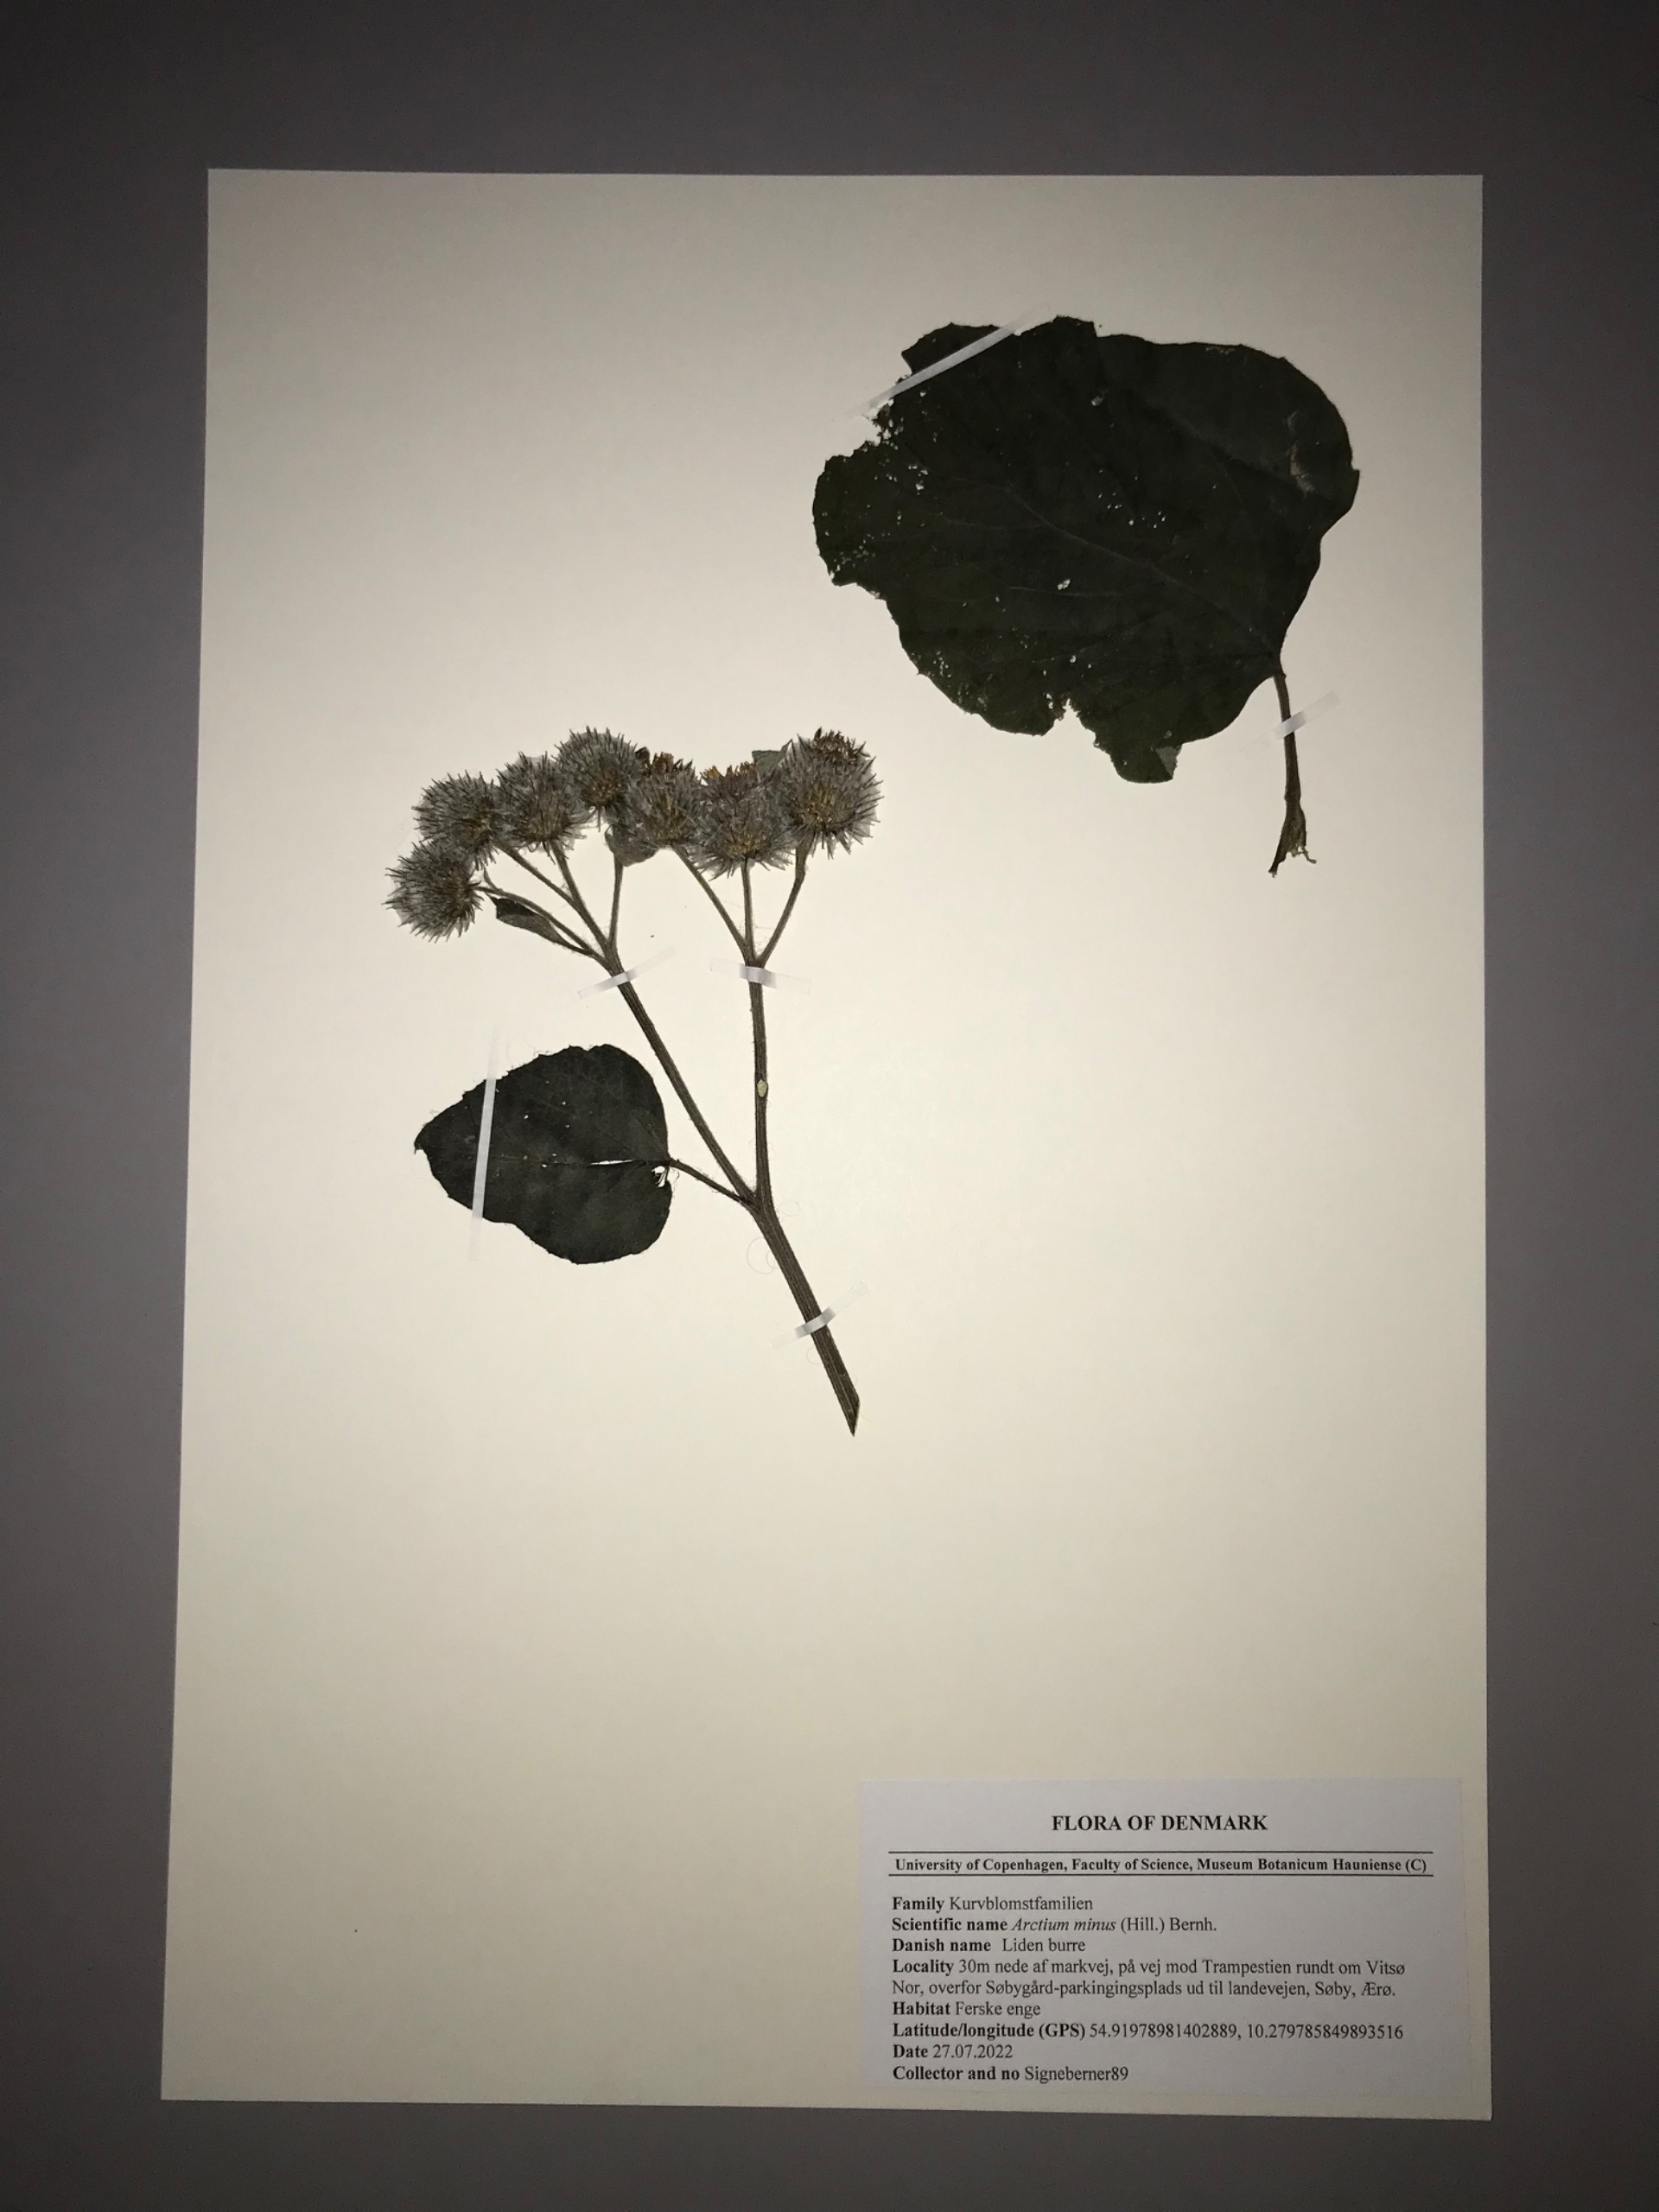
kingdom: Plantae
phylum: Tracheophyta
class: Magnoliopsida
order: Asterales
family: Asteraceae
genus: Arctium
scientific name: Arctium tomentosum
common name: Filtet burre
